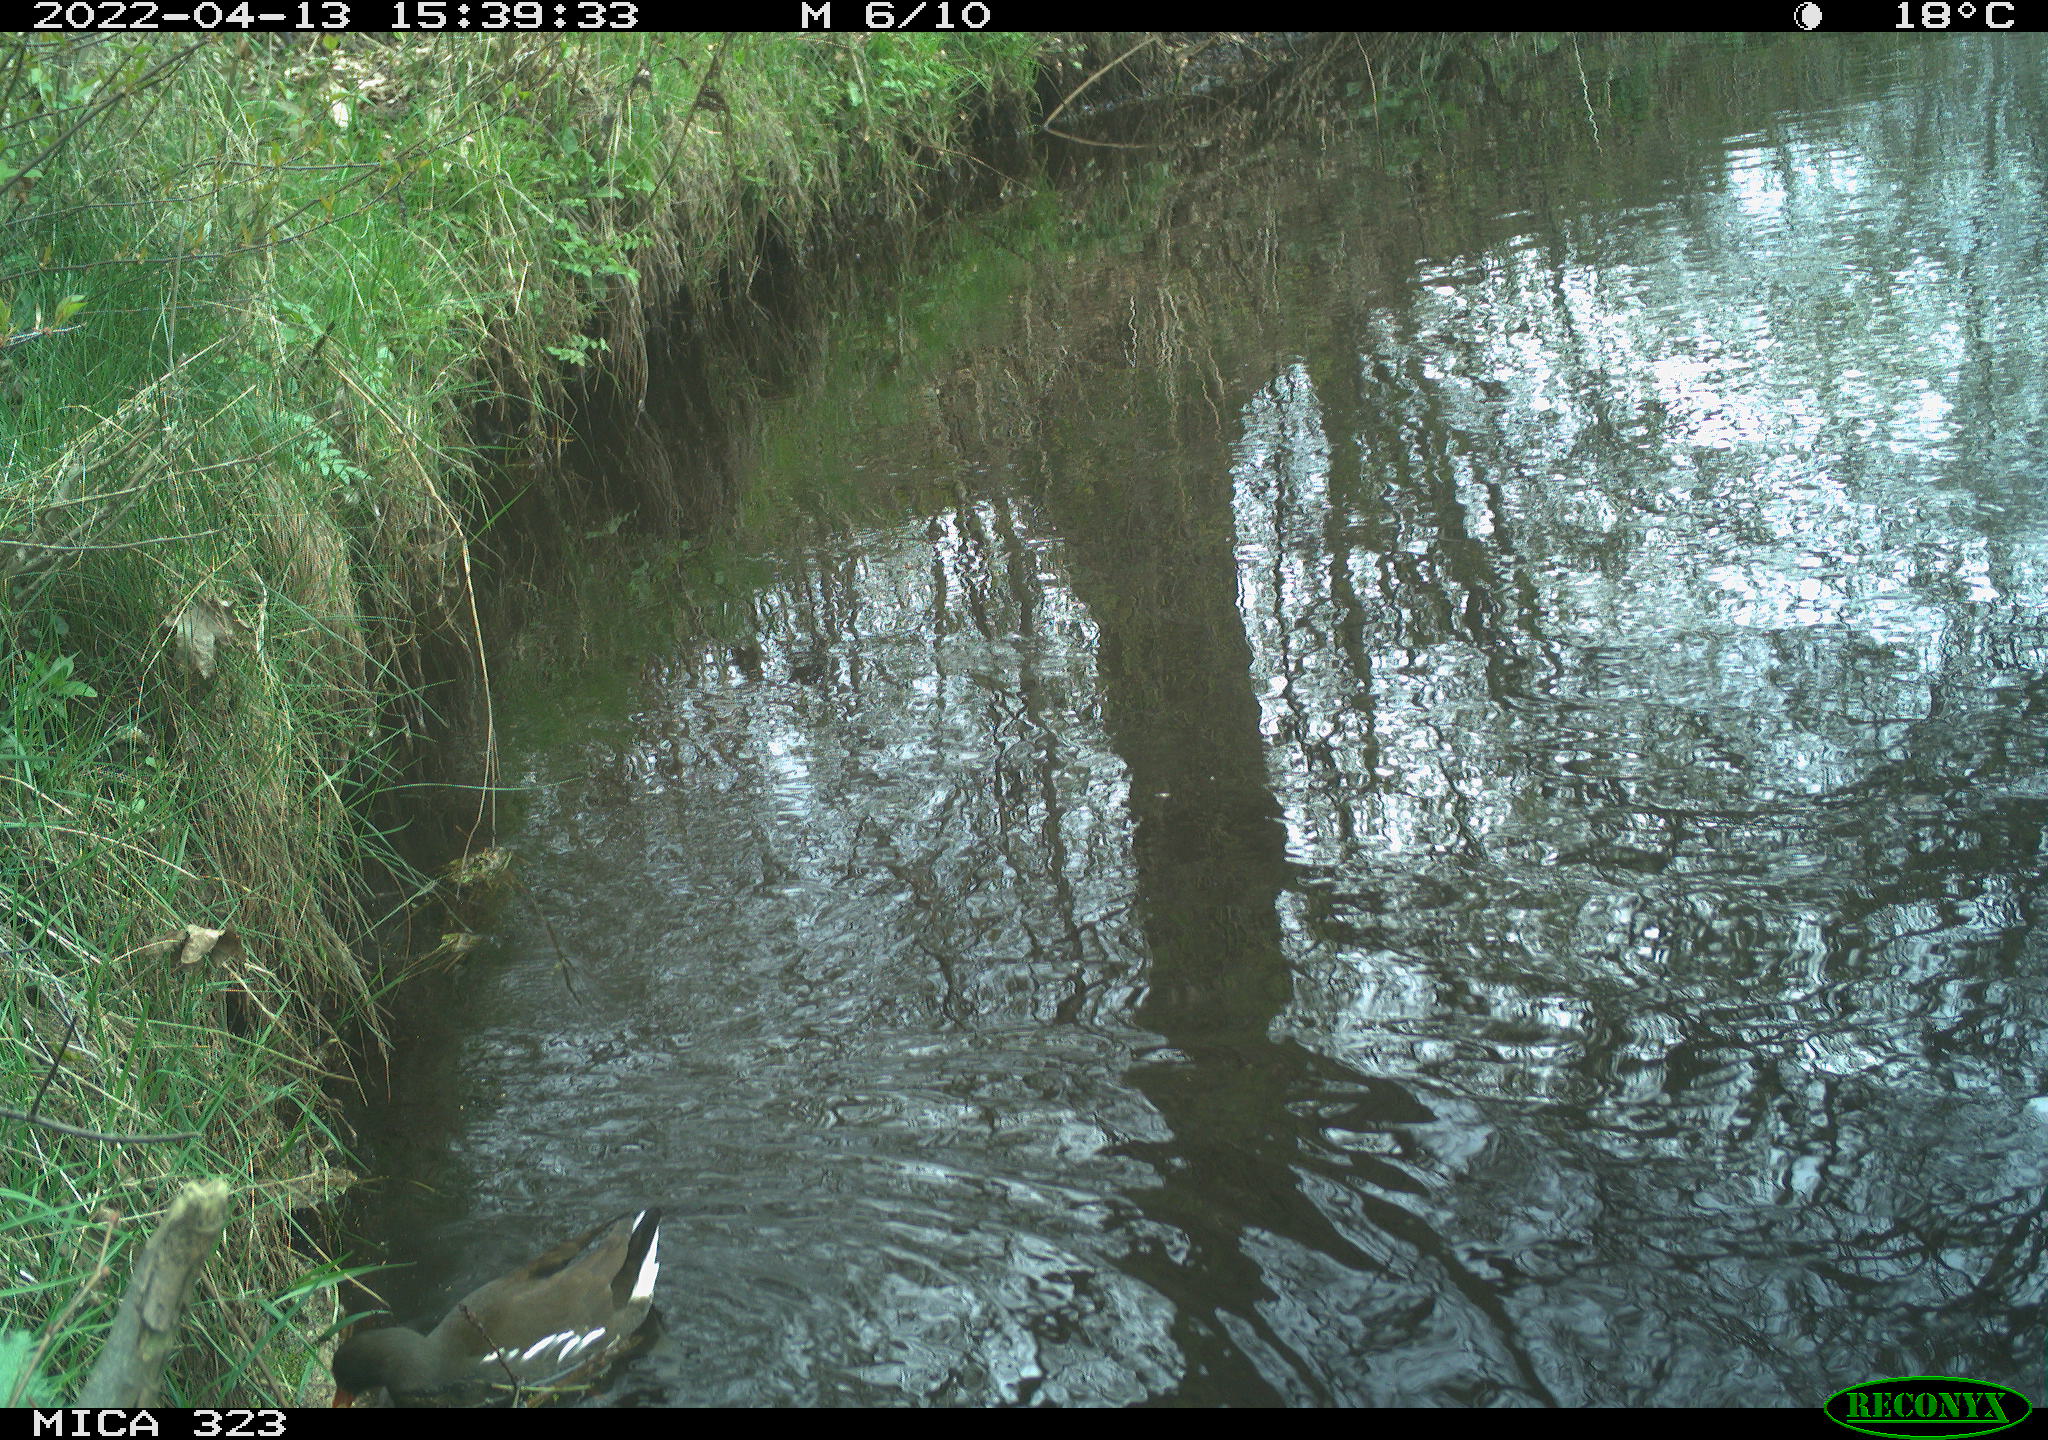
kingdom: Animalia
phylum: Chordata
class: Aves
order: Gruiformes
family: Rallidae
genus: Gallinula
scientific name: Gallinula chloropus
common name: Common moorhen
